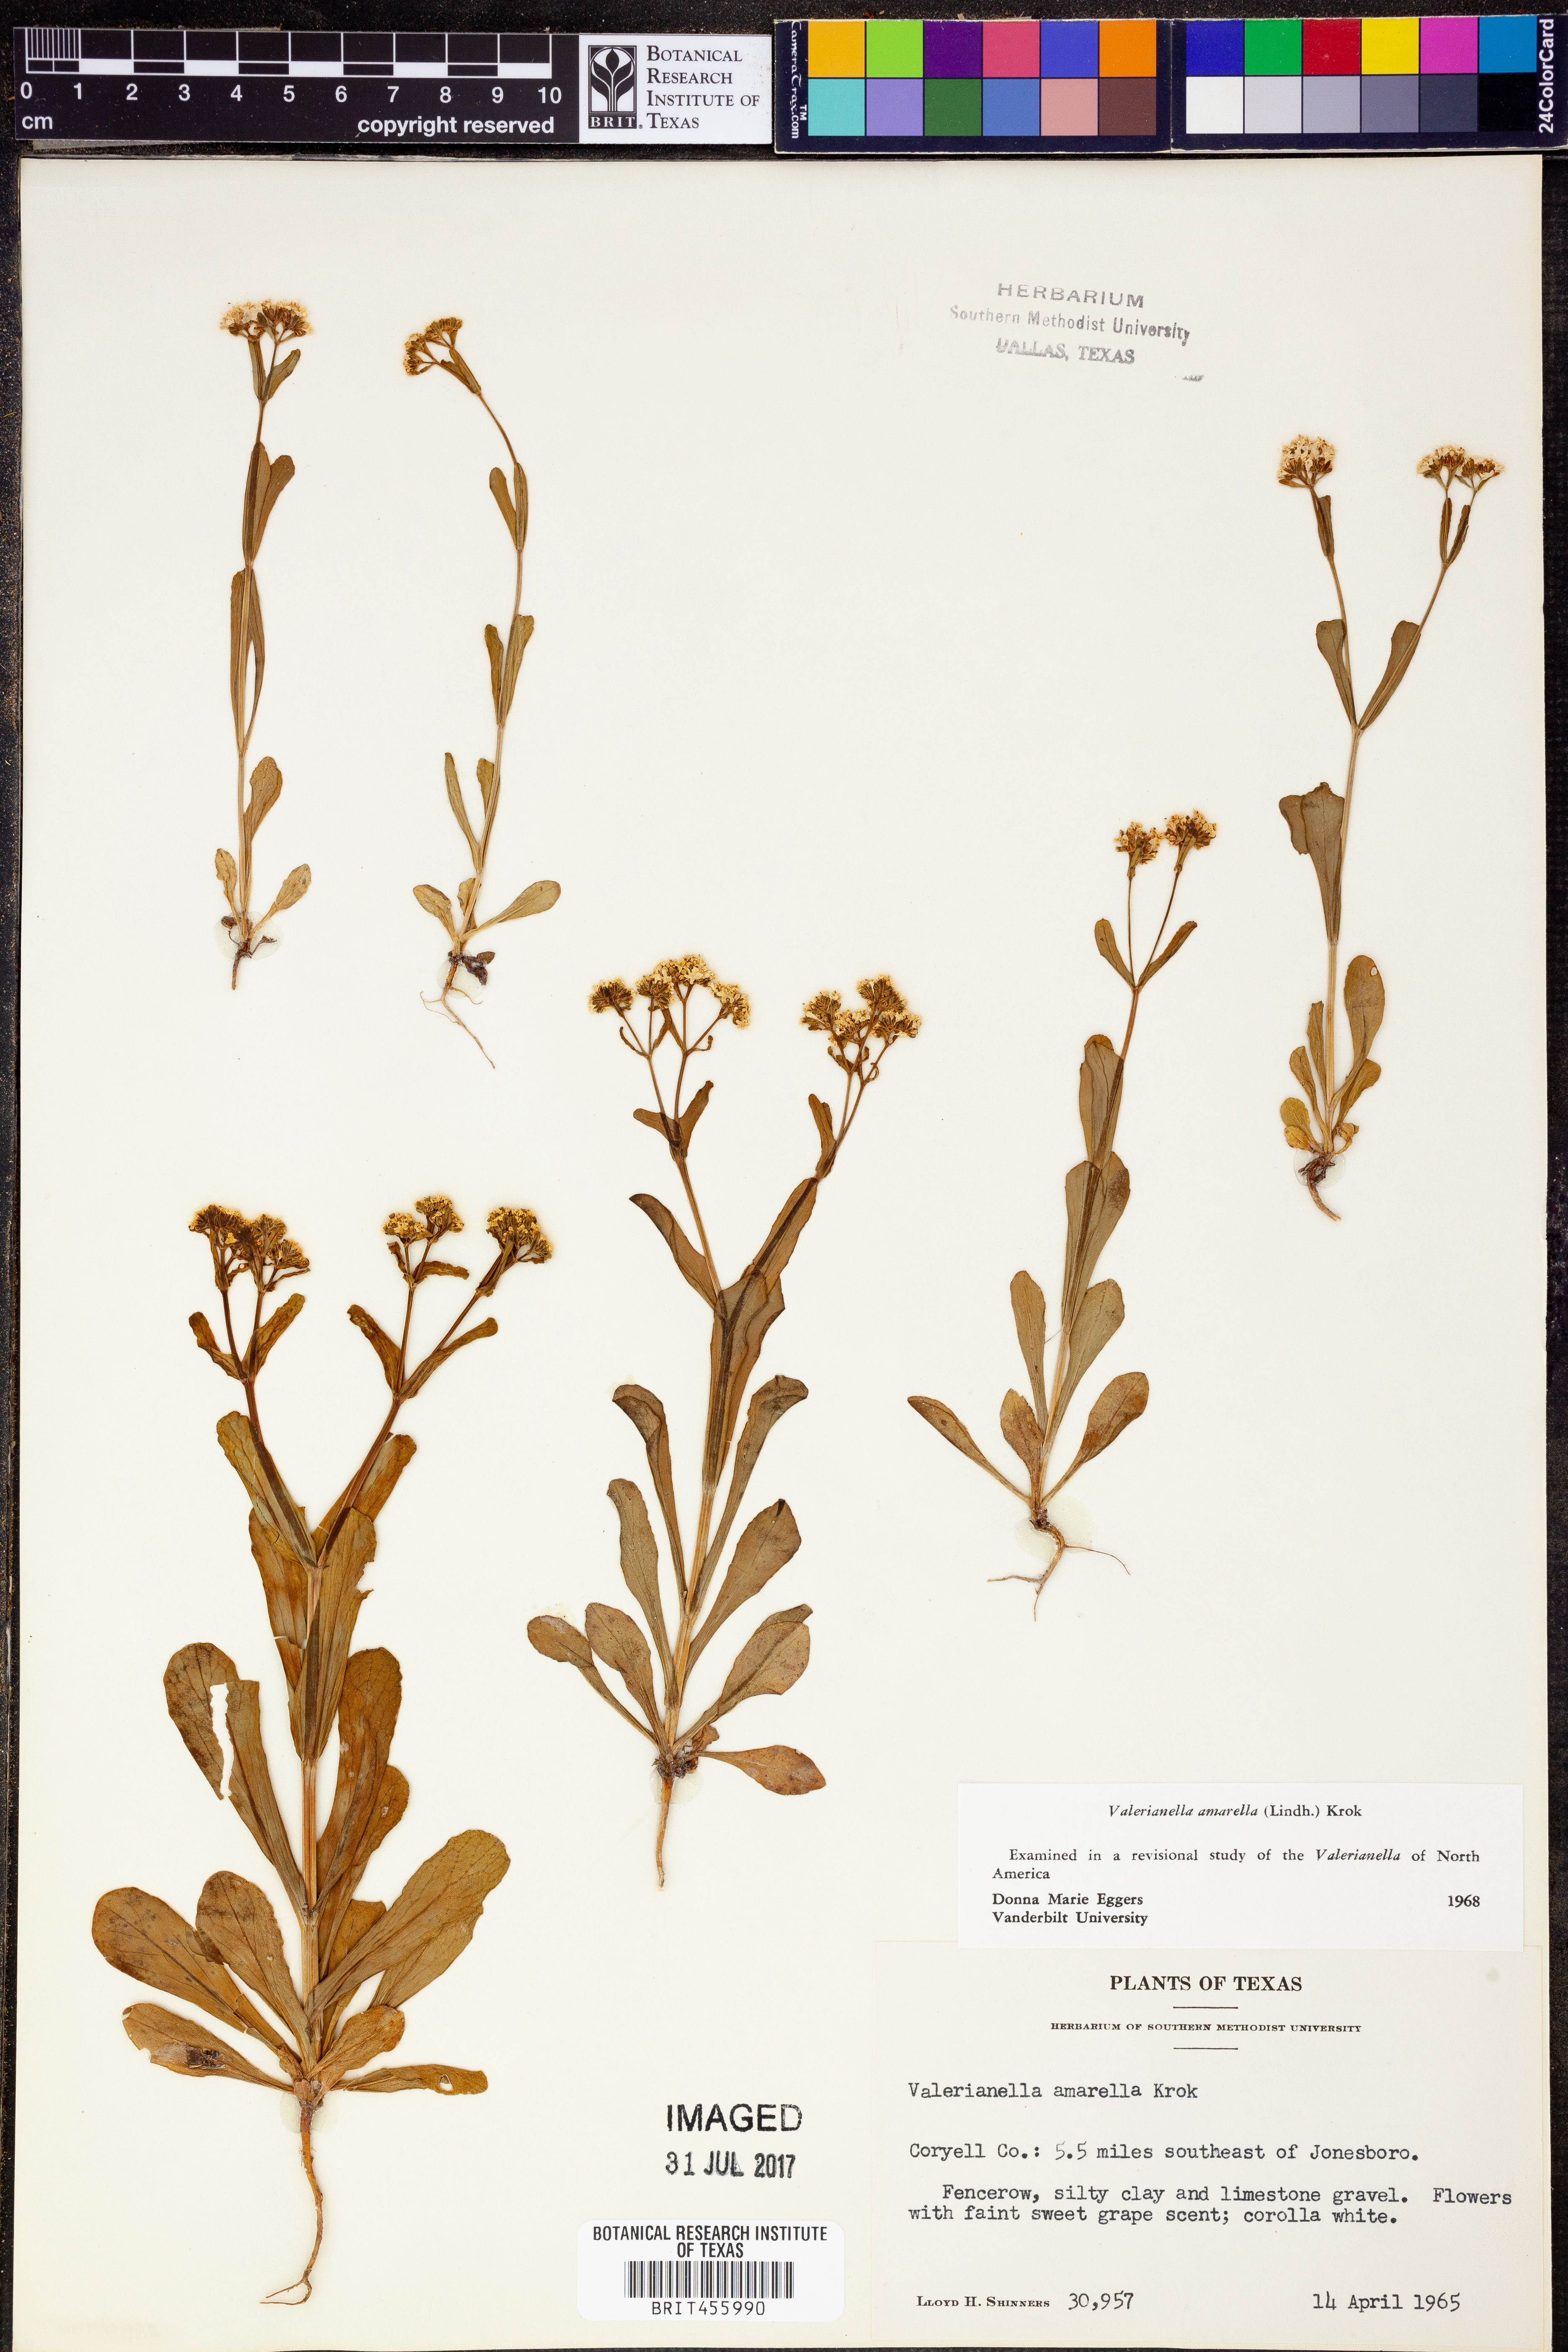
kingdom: Plantae
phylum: Tracheophyta
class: Magnoliopsida
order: Dipsacales
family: Caprifoliaceae
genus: Valerianella
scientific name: Valerianella amarella
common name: Hariy cornsalad
